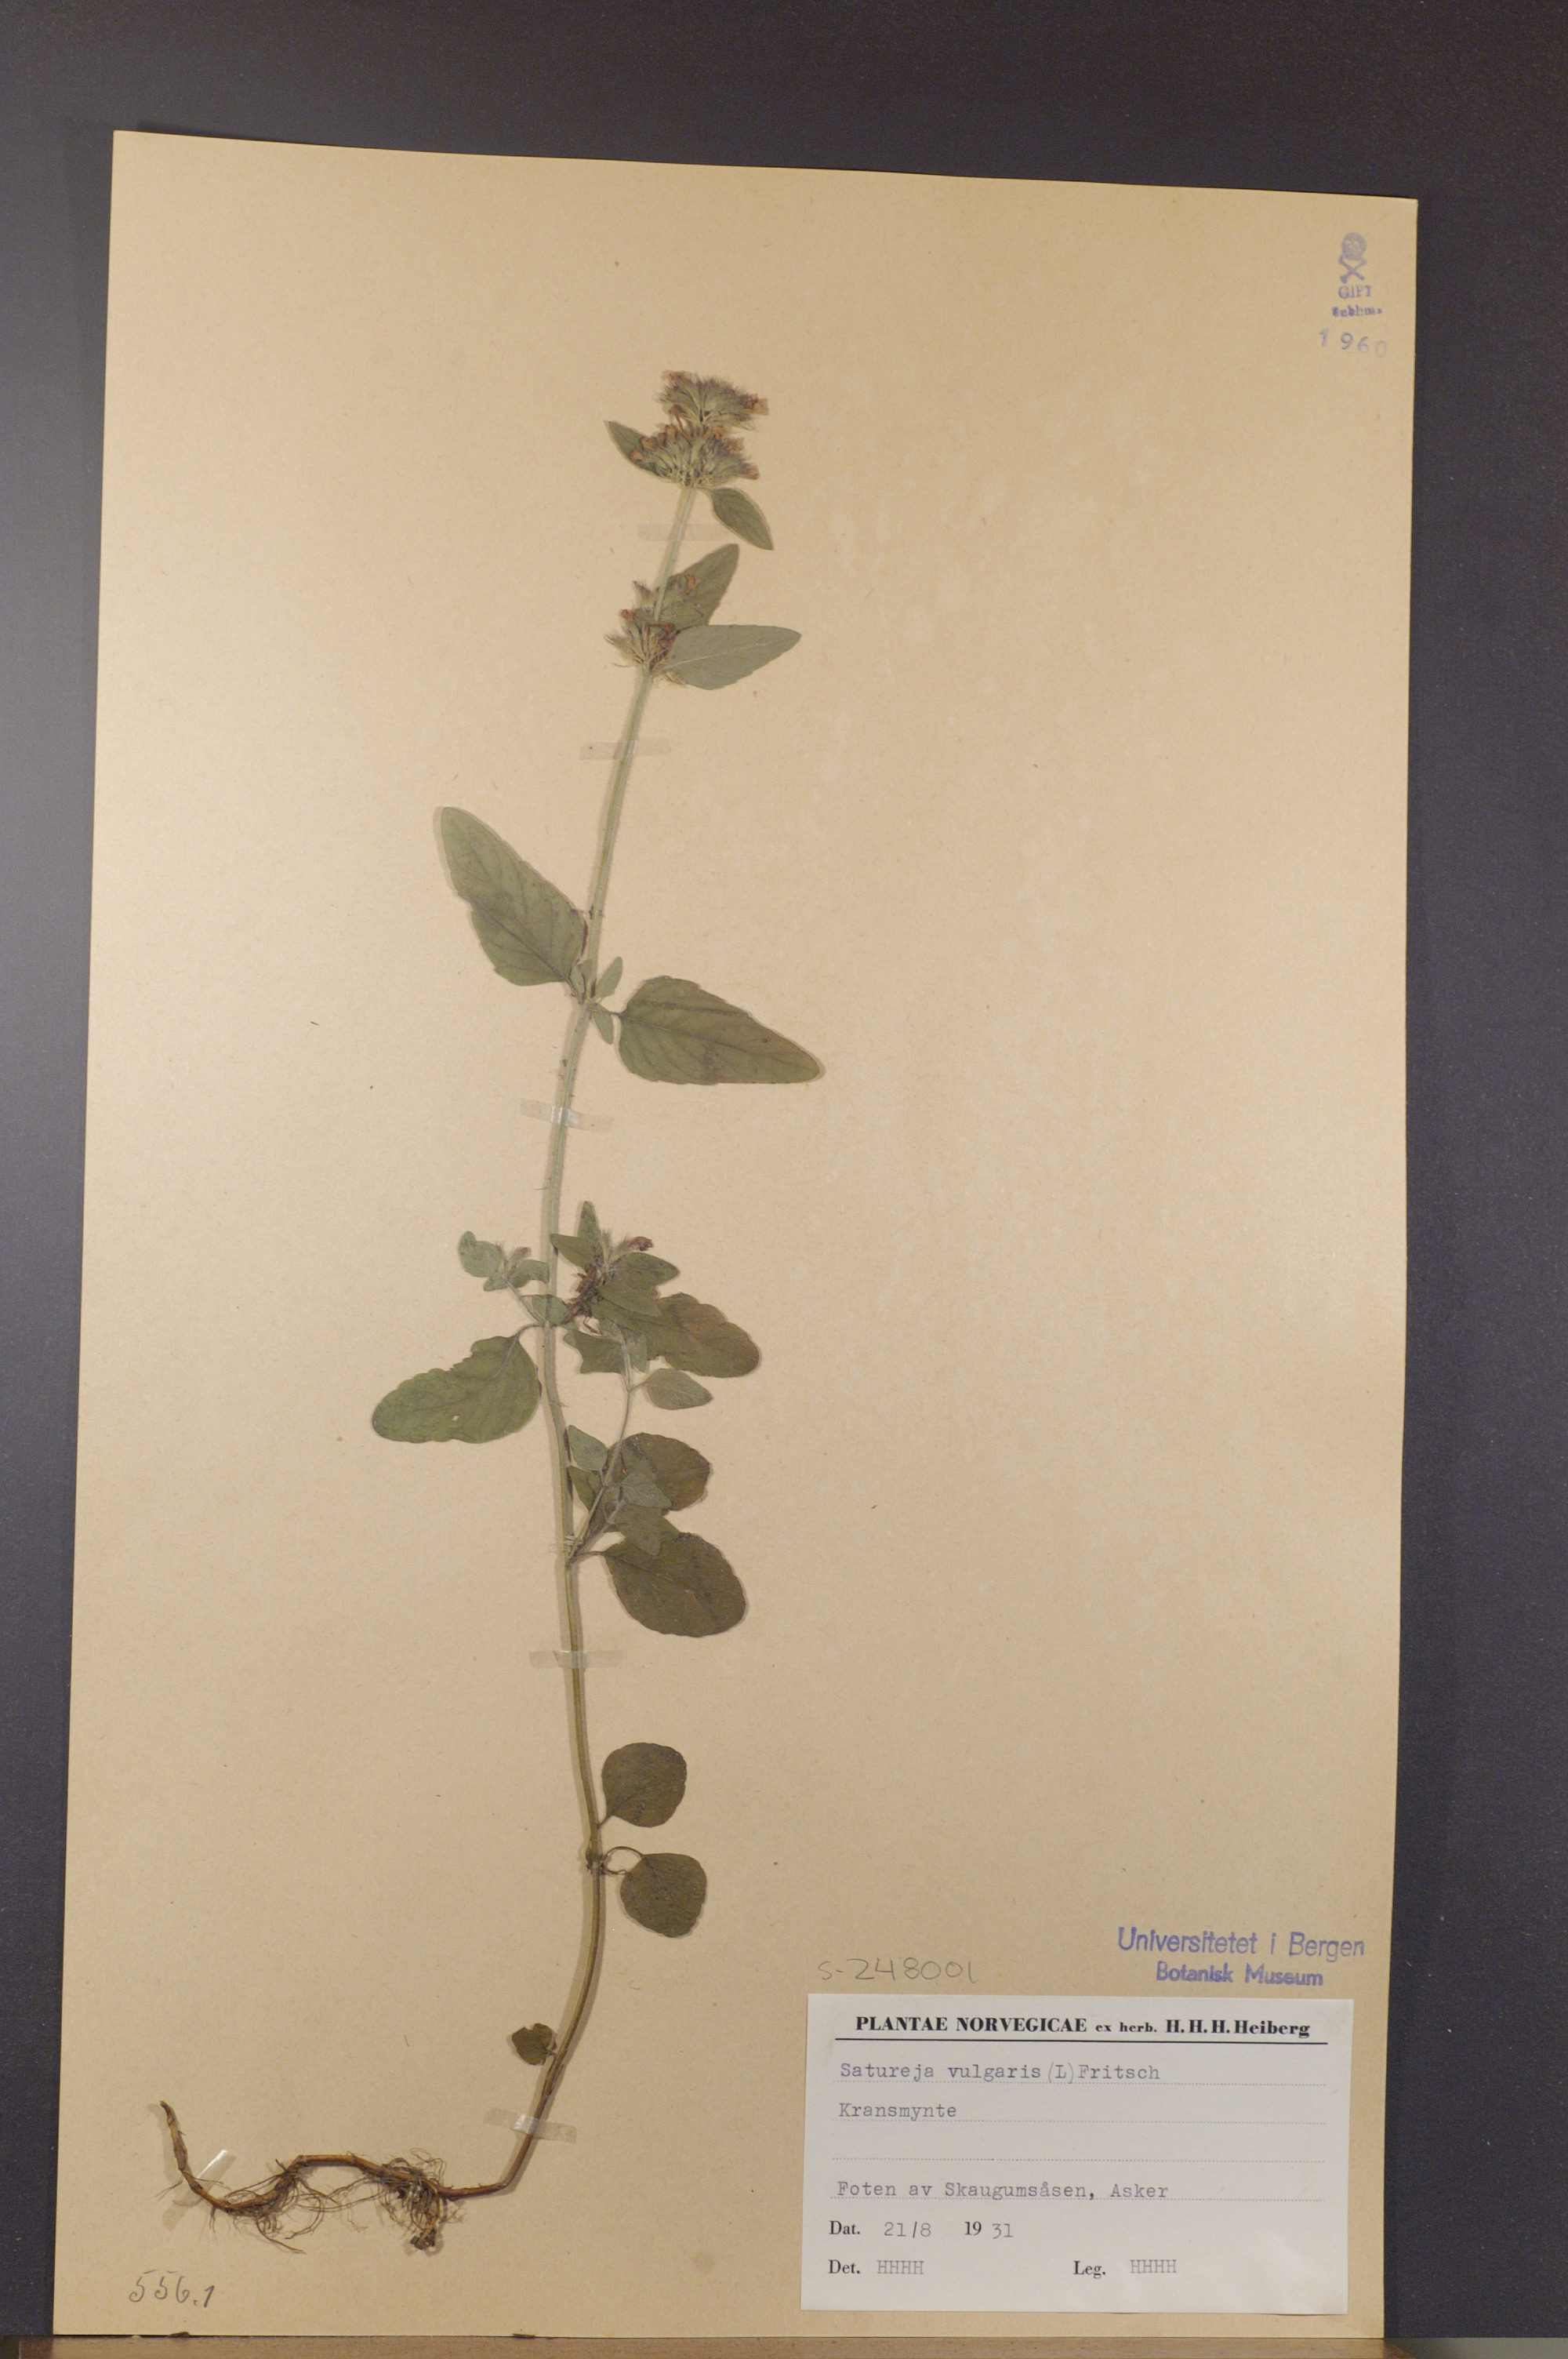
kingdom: Plantae
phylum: Tracheophyta
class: Magnoliopsida
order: Lamiales
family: Lamiaceae
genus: Clinopodium
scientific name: Clinopodium vulgare
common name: Wild basil
